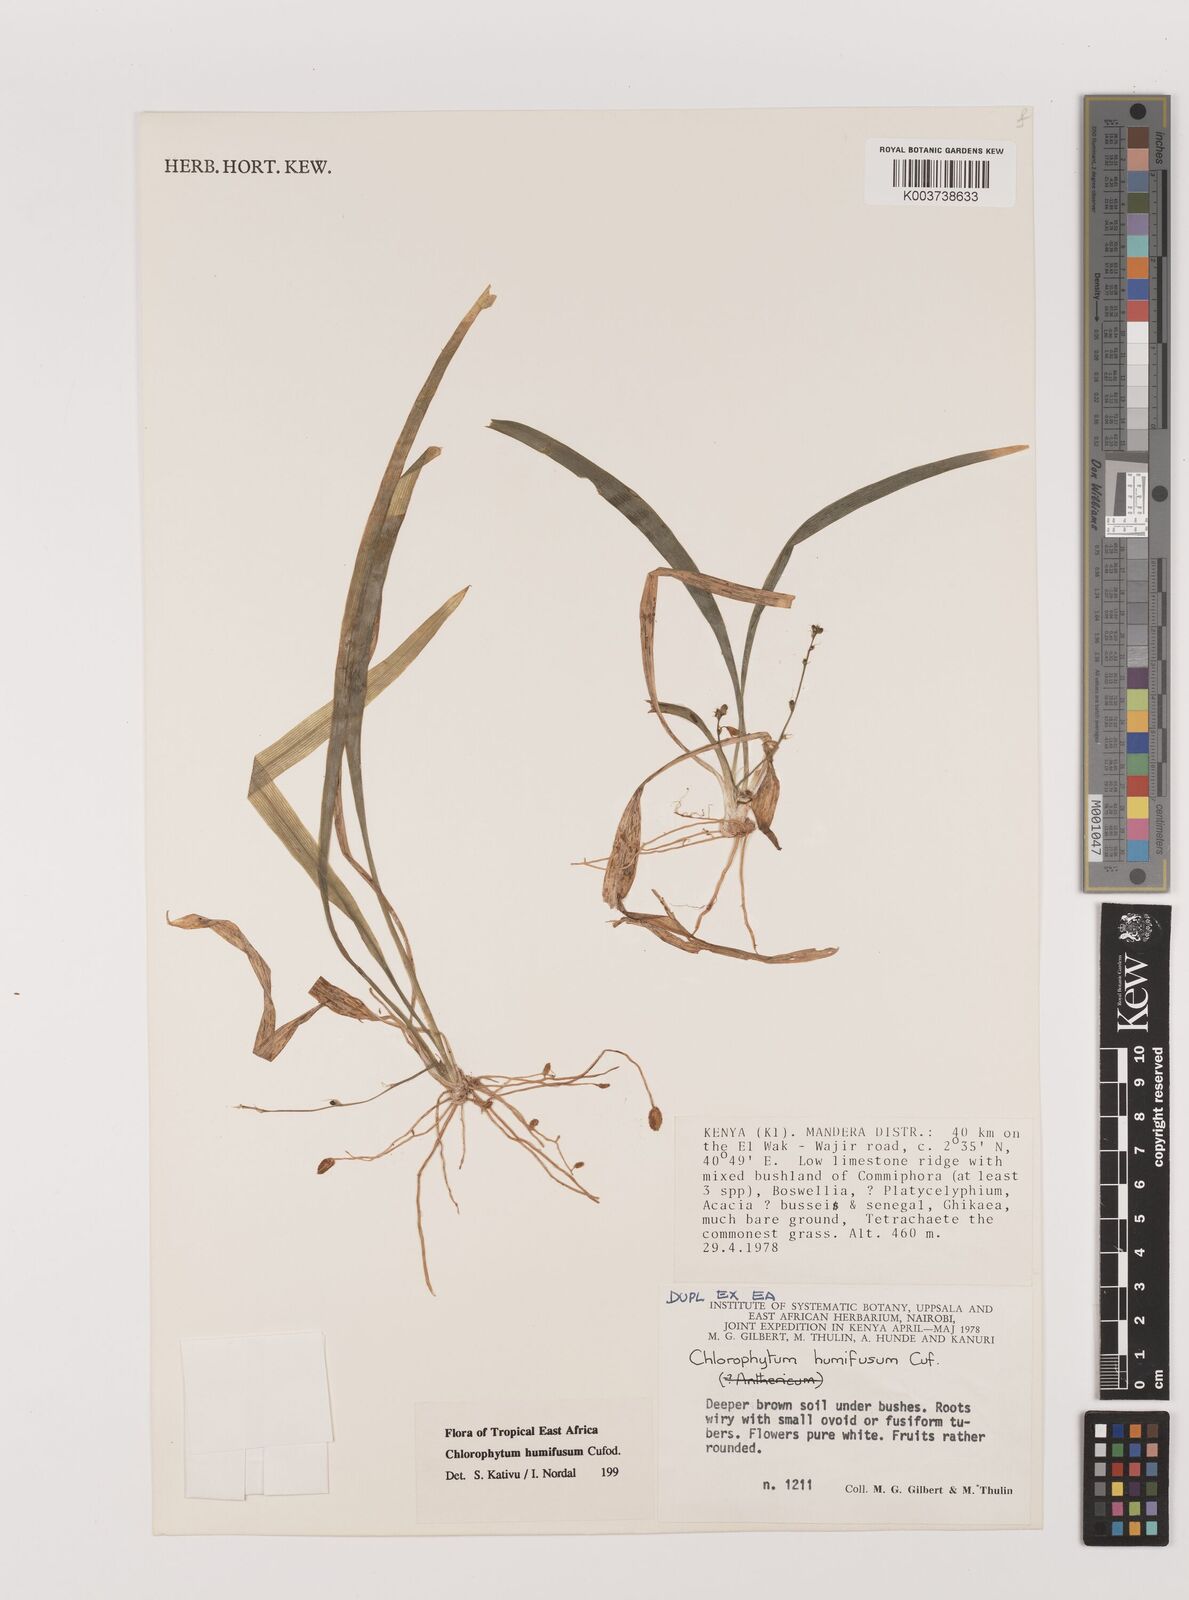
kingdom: Plantae
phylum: Tracheophyta
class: Liliopsida
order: Asparagales
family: Asparagaceae
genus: Chlorophytum
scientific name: Chlorophytum humifusum
